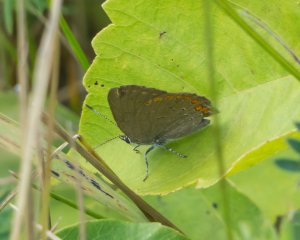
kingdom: Animalia
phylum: Arthropoda
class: Insecta
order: Lepidoptera
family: Lycaenidae
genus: Harkenclenus
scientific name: Harkenclenus titus
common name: Coral Hairstreak
